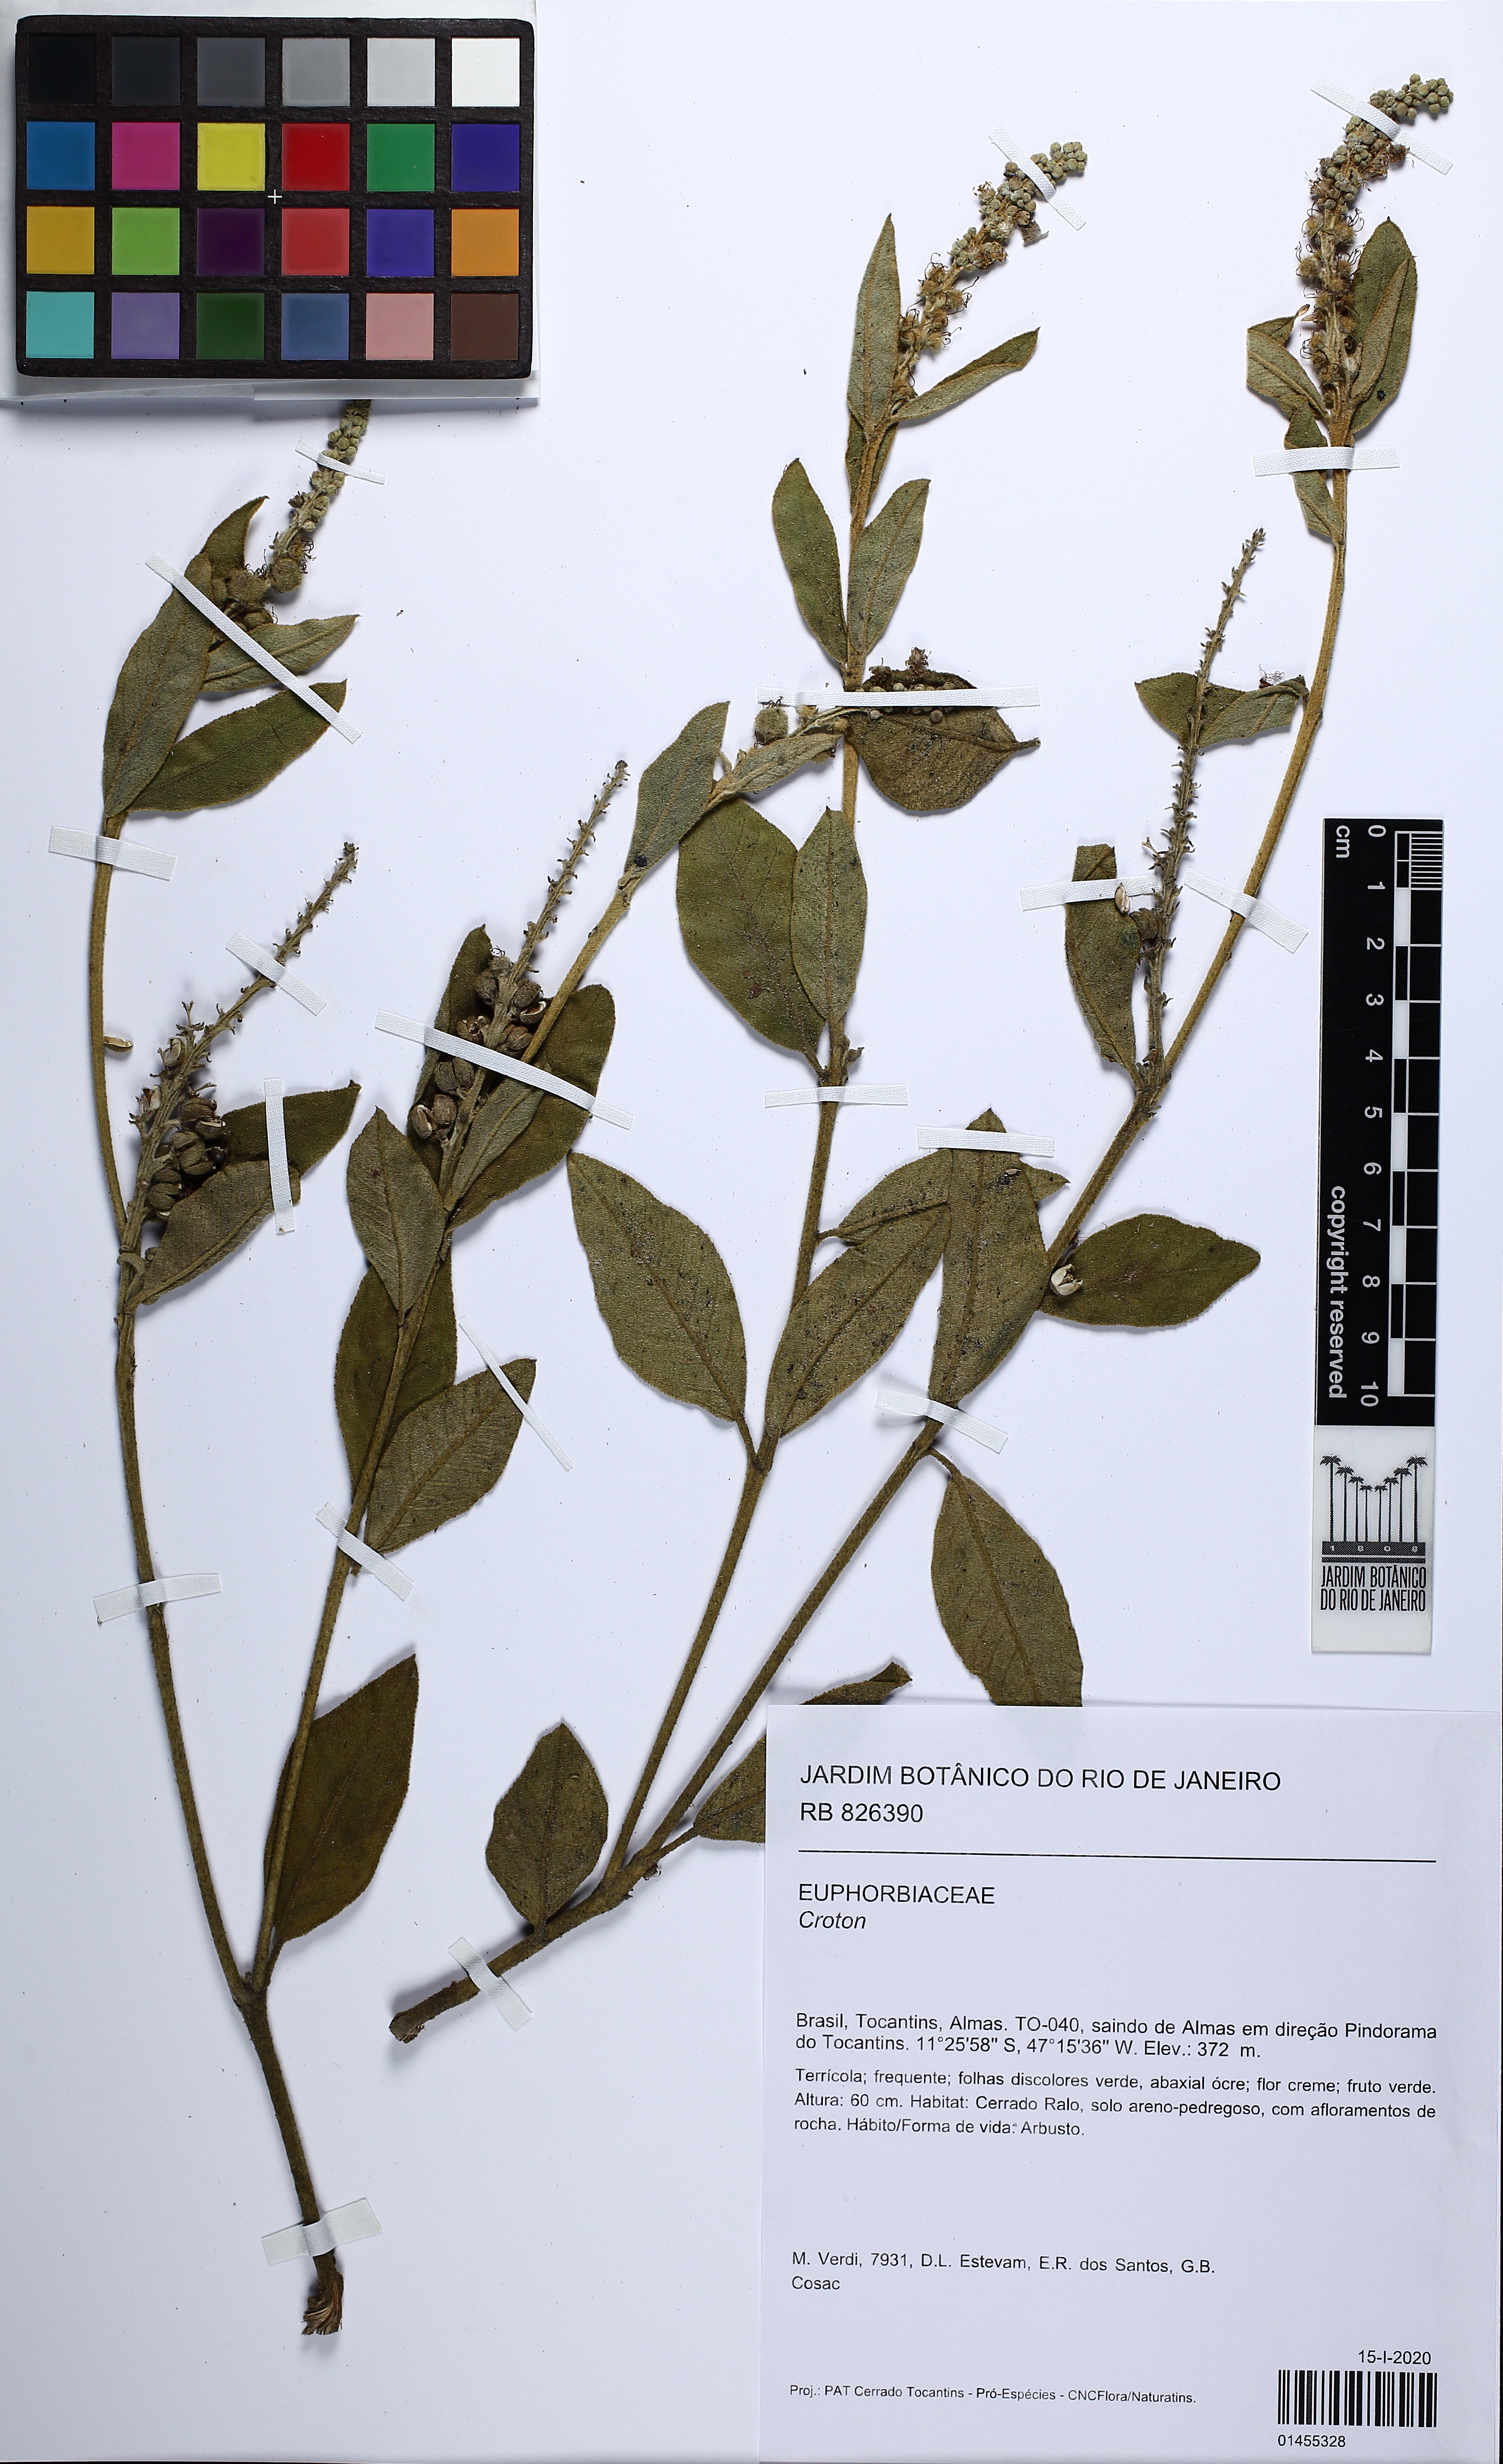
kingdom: Plantae
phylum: Tracheophyta
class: Magnoliopsida
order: Malpighiales
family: Euphorbiaceae
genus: Croton
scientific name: Croton
